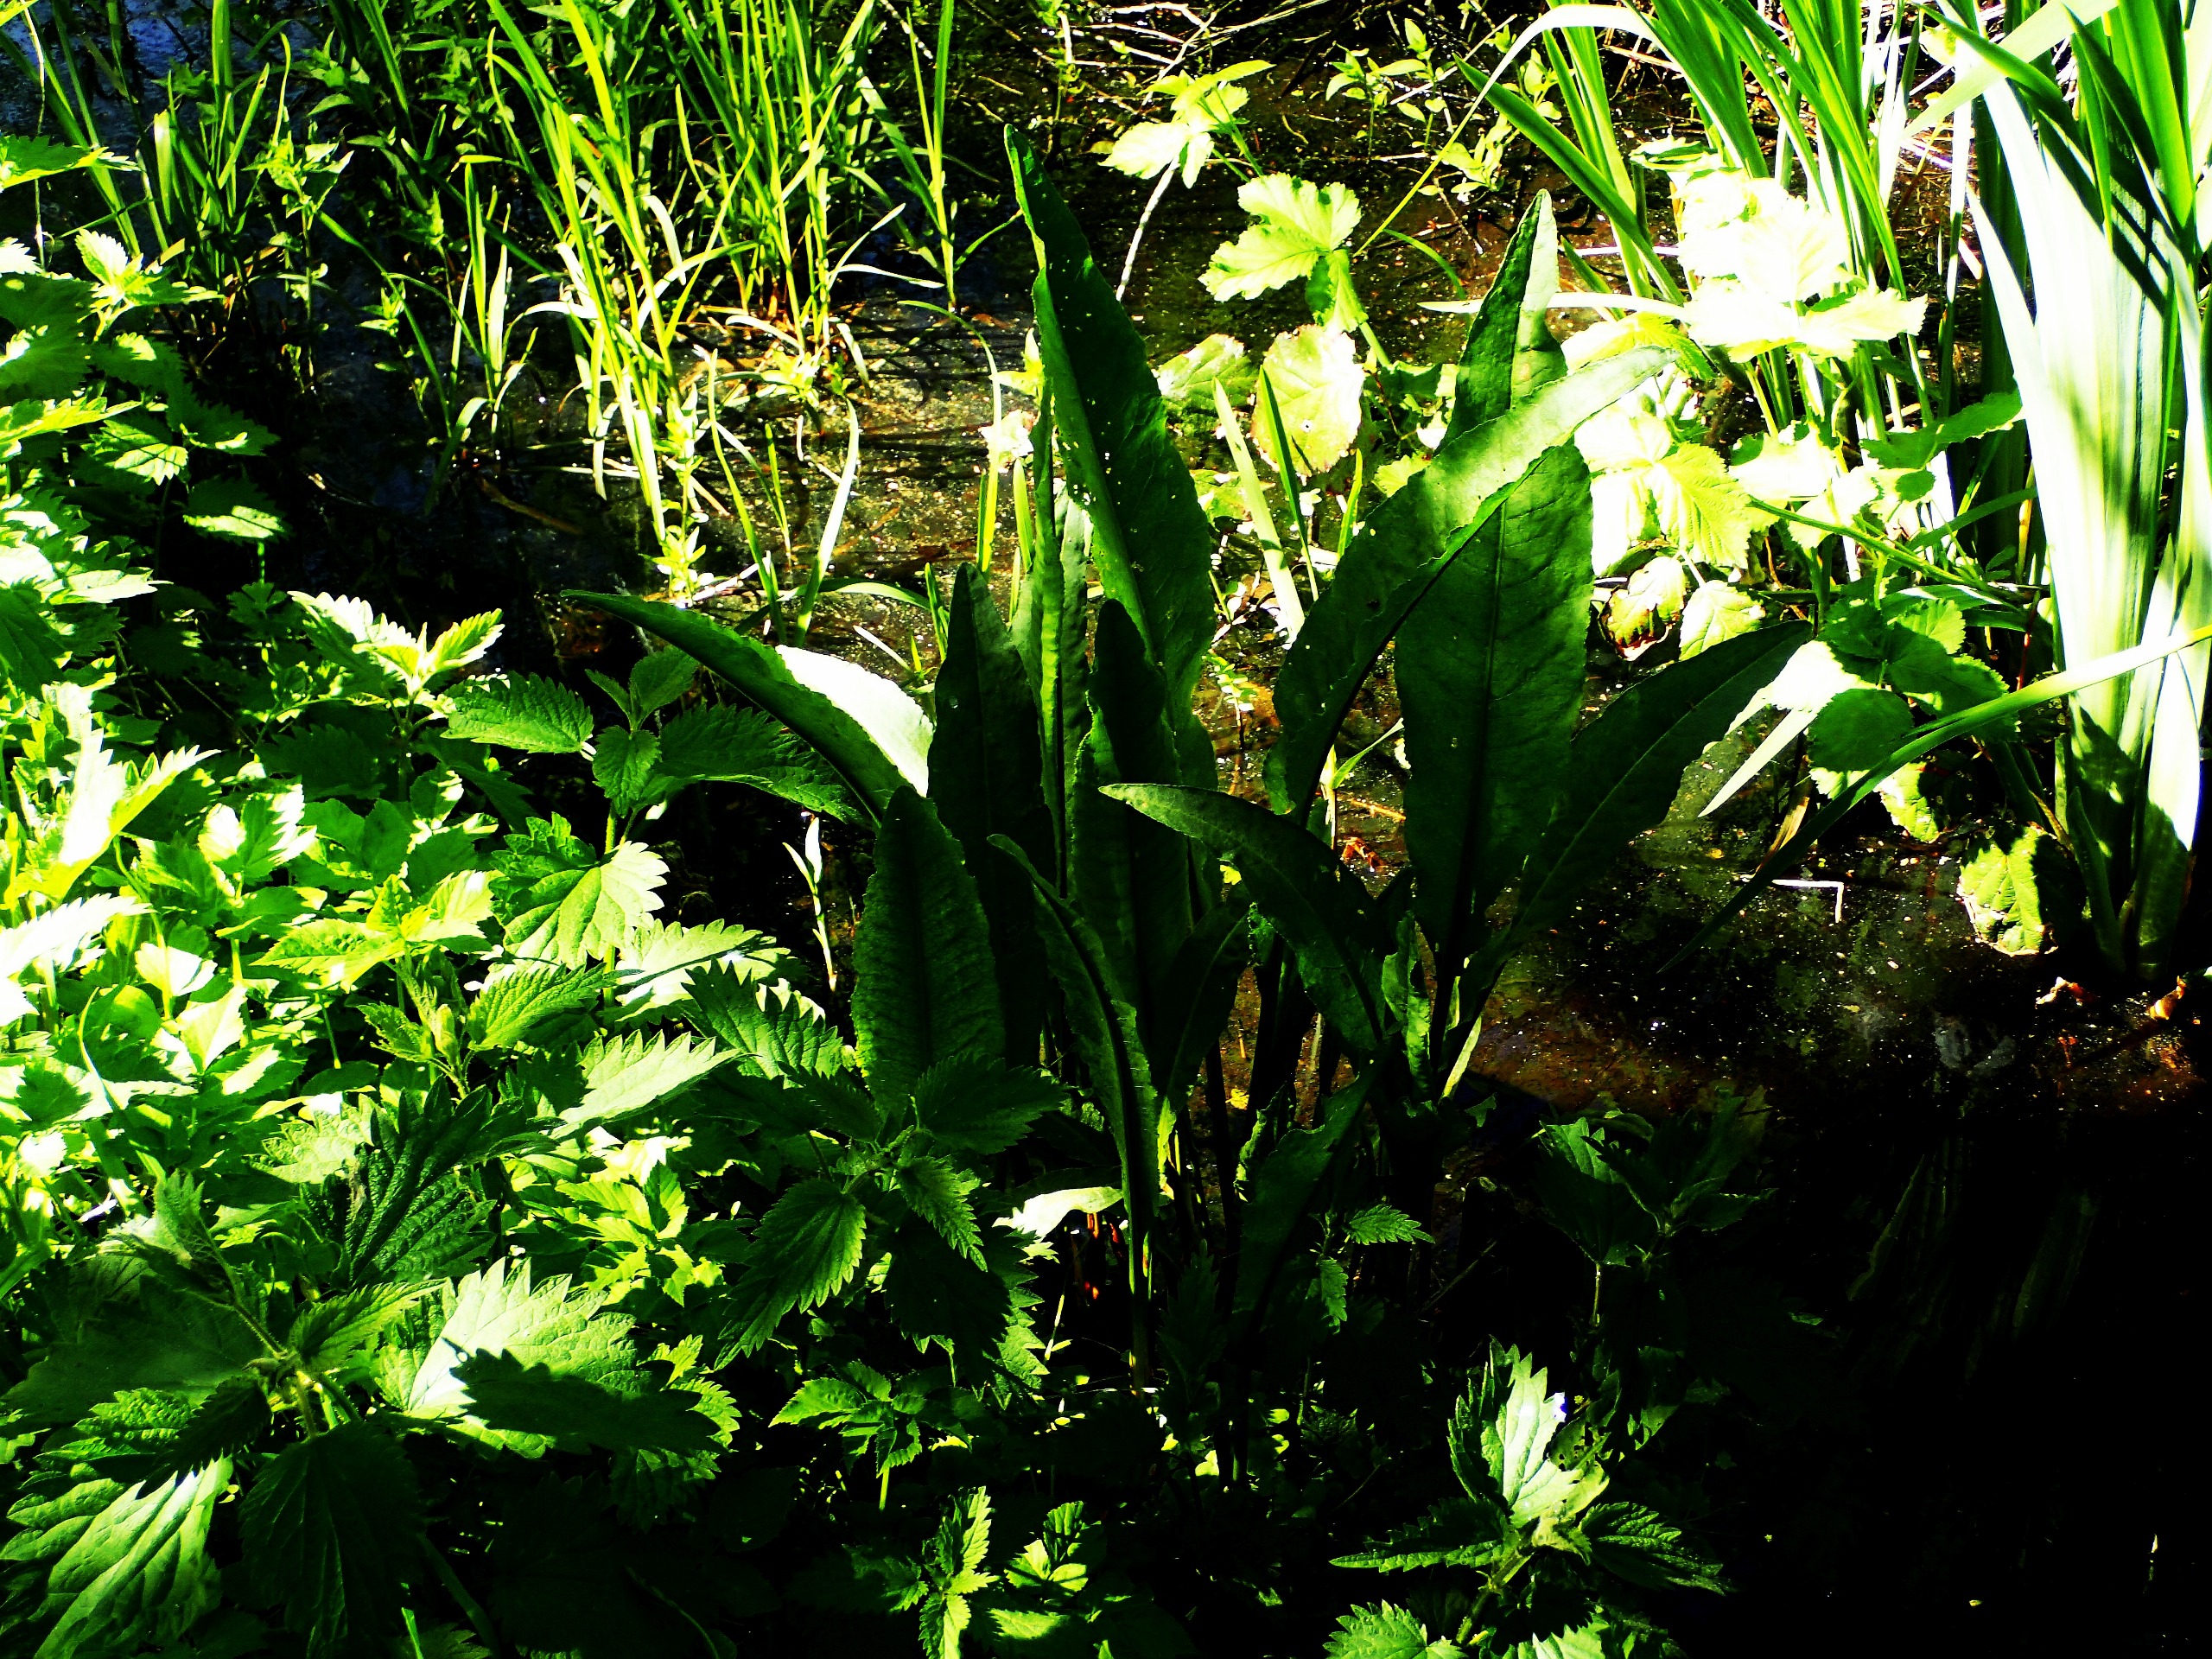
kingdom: Plantae
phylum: Tracheophyta
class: Magnoliopsida
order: Caryophyllales
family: Polygonaceae
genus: Rumex
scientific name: Rumex hydrolapathum
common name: Vand-skræppe
